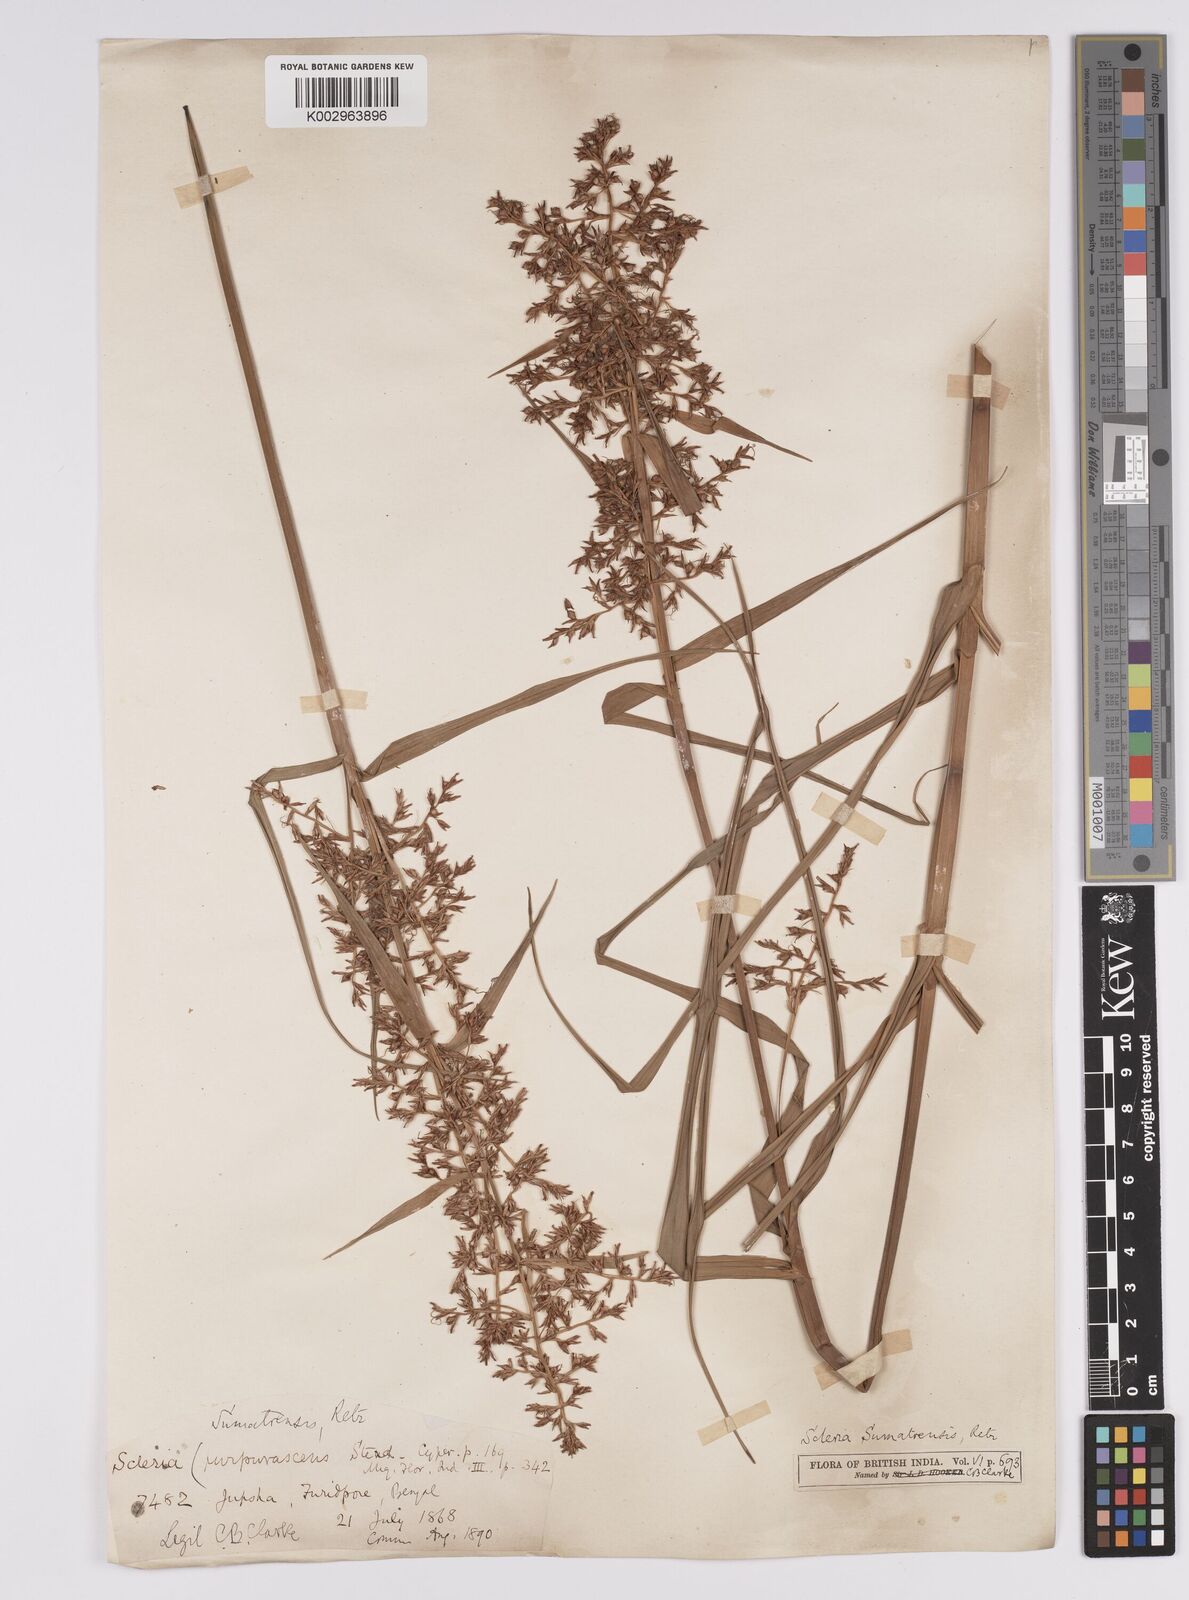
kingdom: Plantae
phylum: Tracheophyta
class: Liliopsida
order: Poales
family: Cyperaceae
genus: Scleria
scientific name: Scleria sumatrensis
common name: Sumatran scleria
